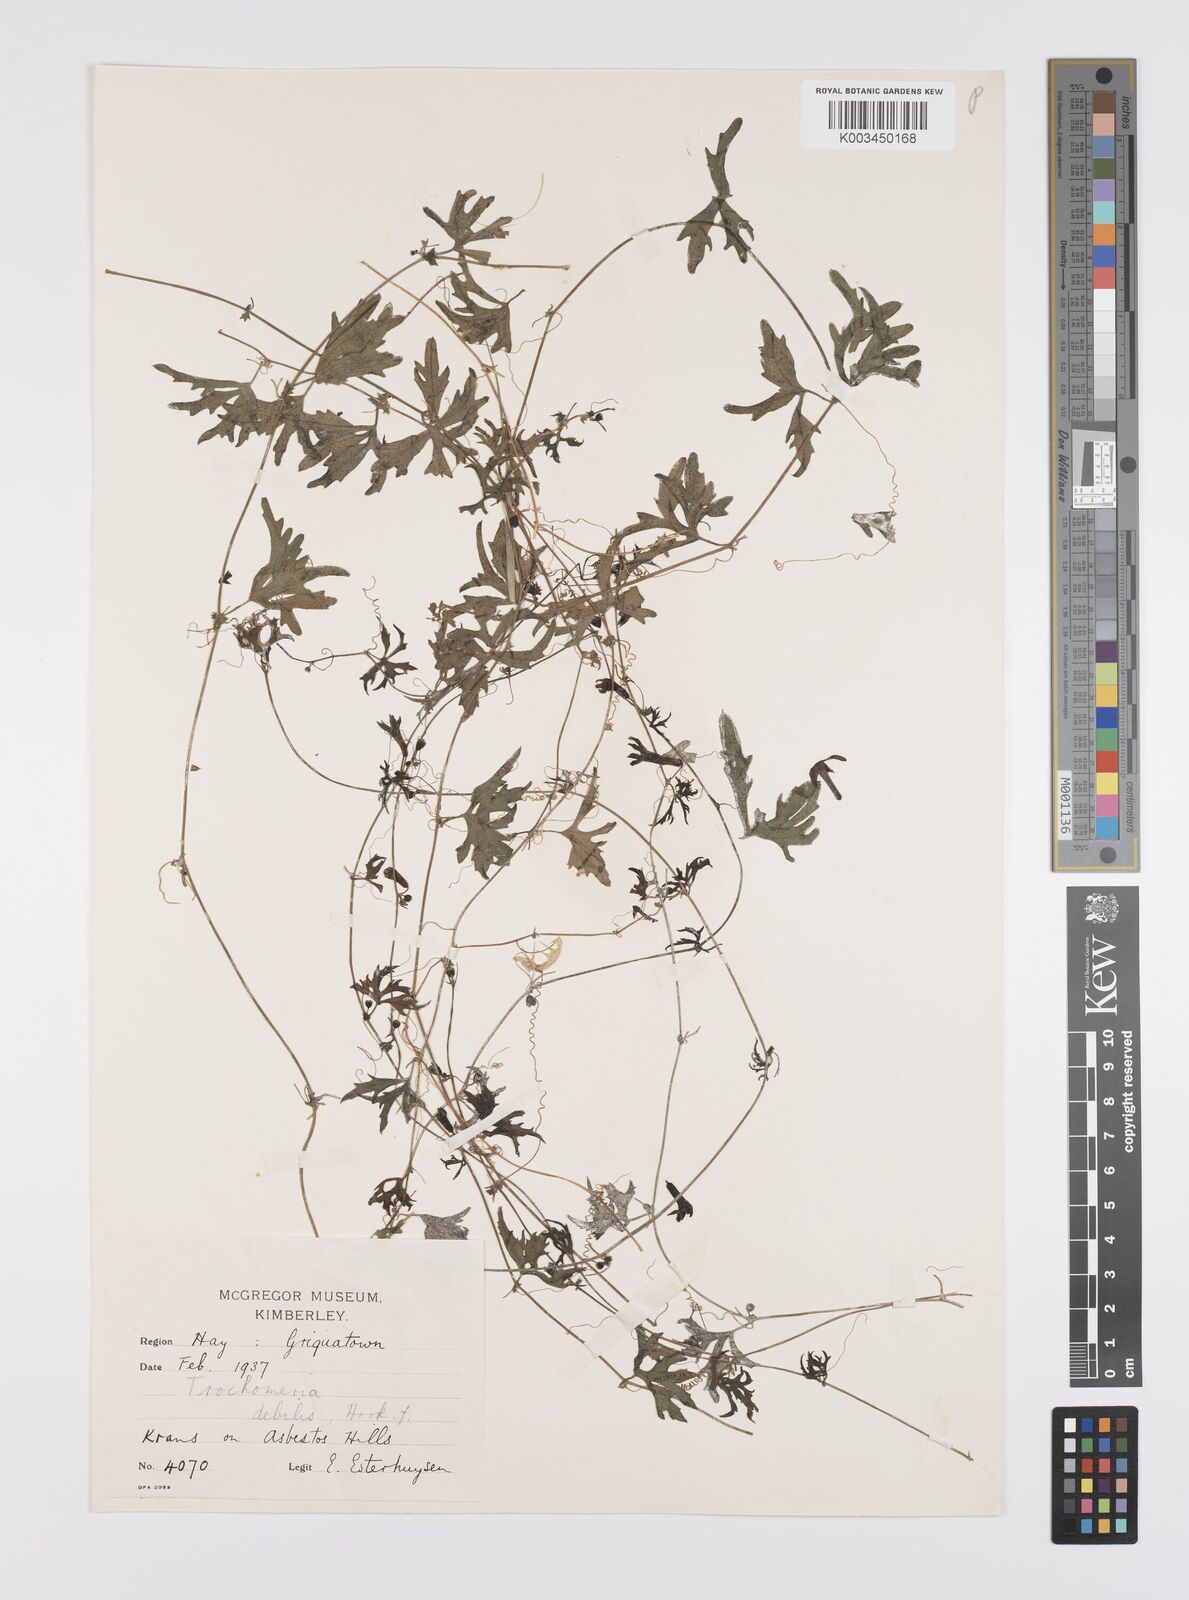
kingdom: Plantae
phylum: Tracheophyta
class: Magnoliopsida
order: Cucurbitales
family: Cucurbitaceae
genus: Trochomeria
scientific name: Trochomeria debilis
